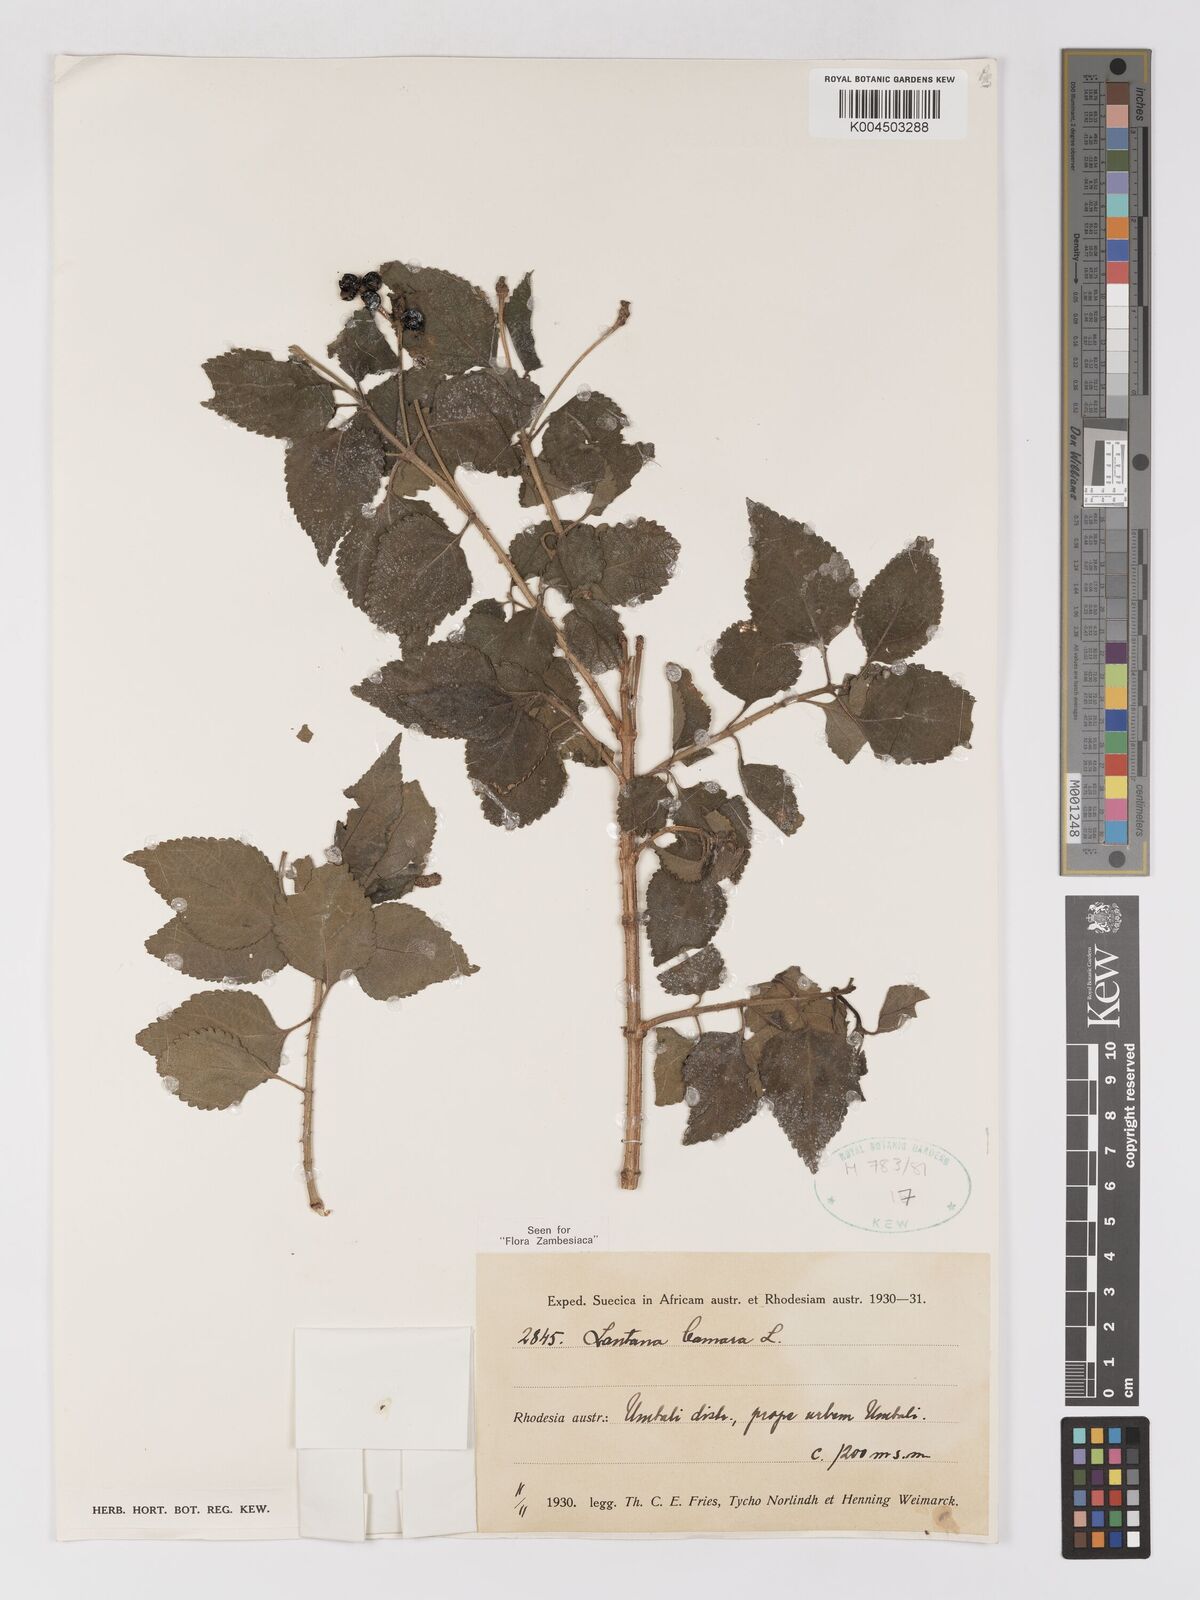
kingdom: Plantae
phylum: Tracheophyta
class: Magnoliopsida
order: Lamiales
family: Verbenaceae
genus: Lantana
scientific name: Lantana camara
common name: Lantana
